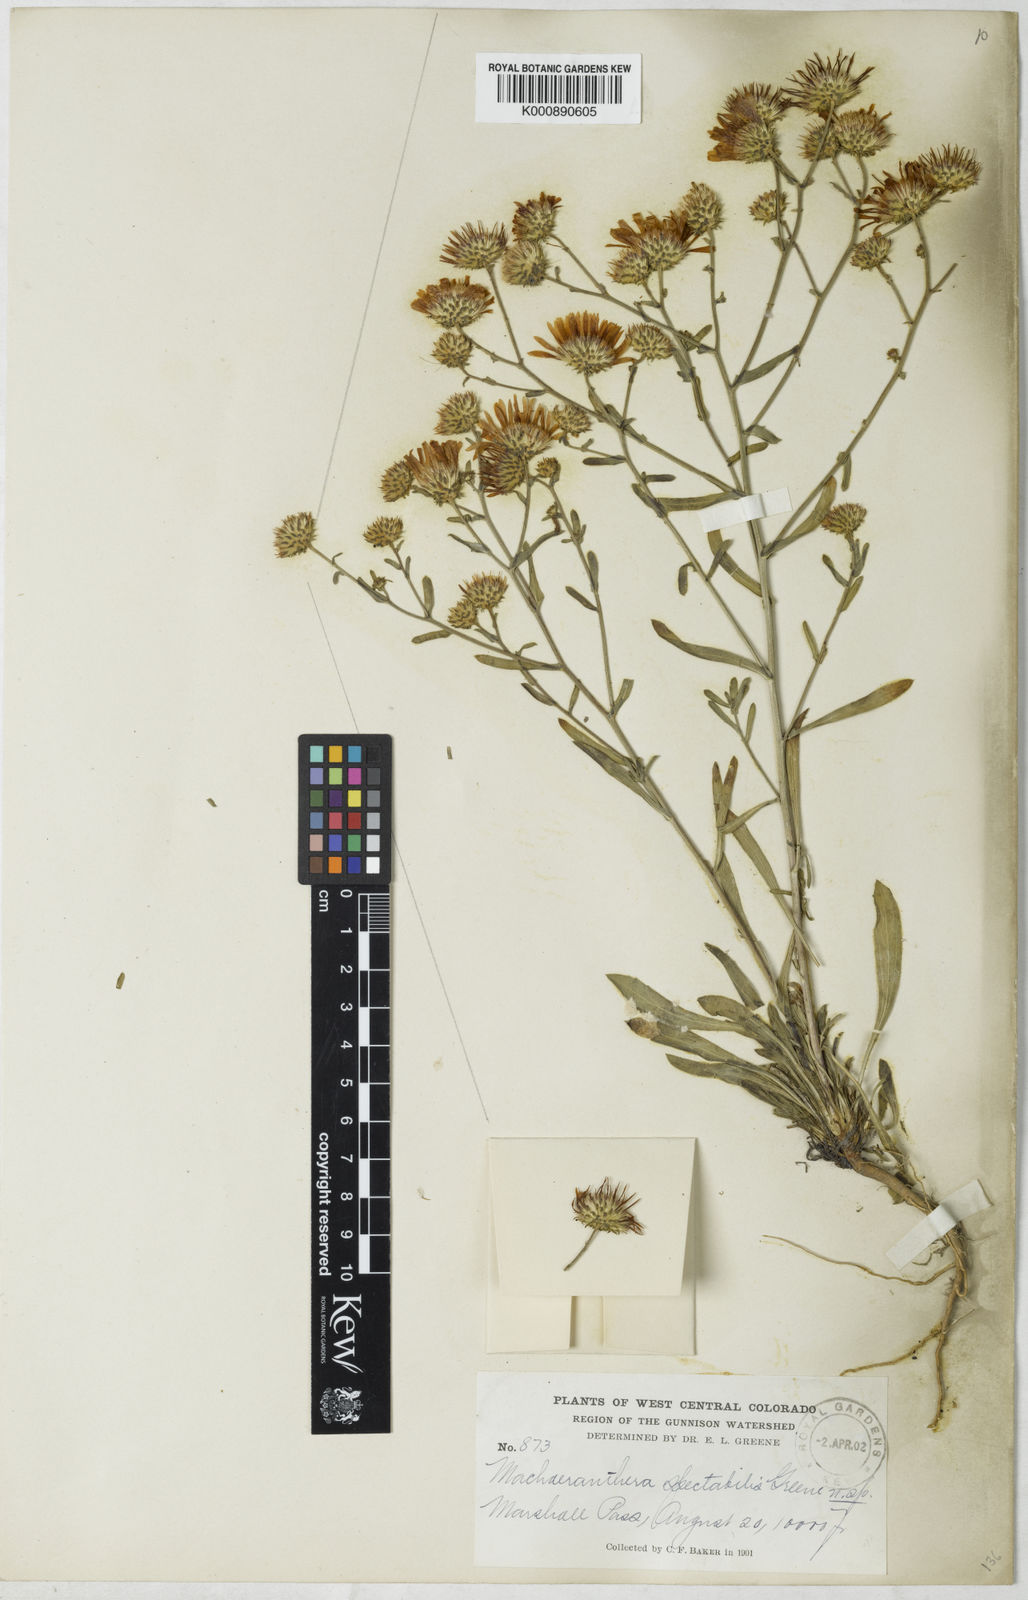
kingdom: Plantae
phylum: Tracheophyta
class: Magnoliopsida
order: Asterales
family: Asteraceae
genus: Aster
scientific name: Aster
